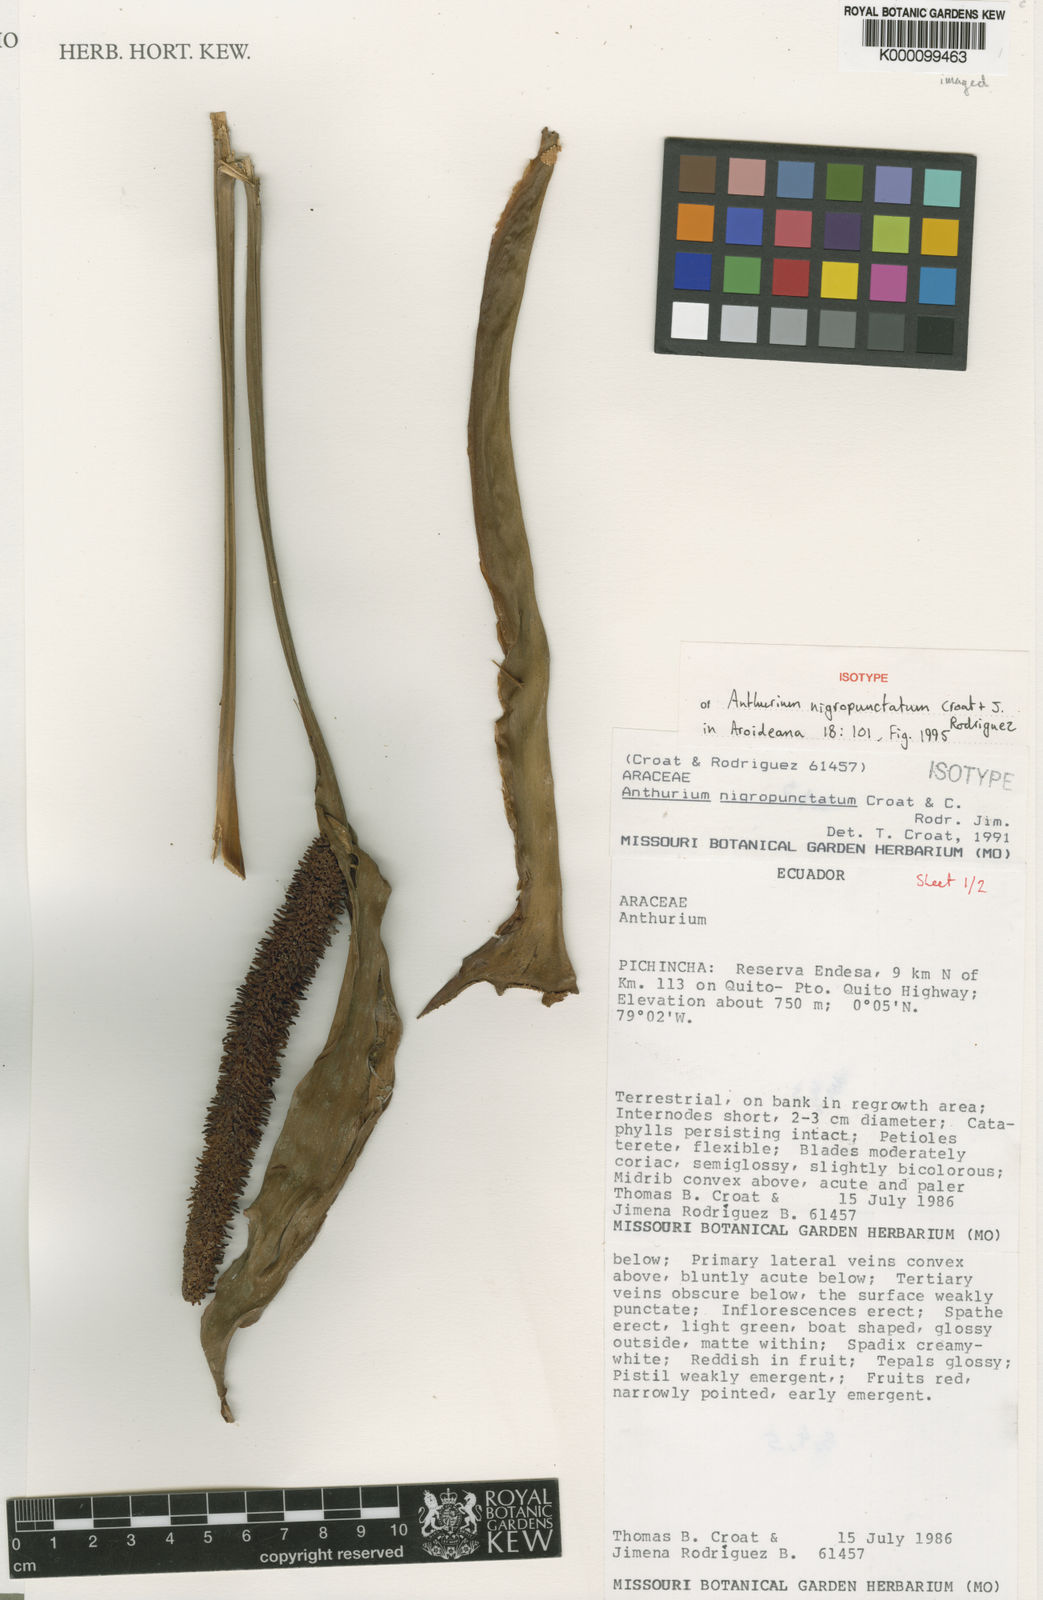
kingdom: Plantae
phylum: Tracheophyta
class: Liliopsida
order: Alismatales
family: Araceae
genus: Anthurium
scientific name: Anthurium nigropunctatum
